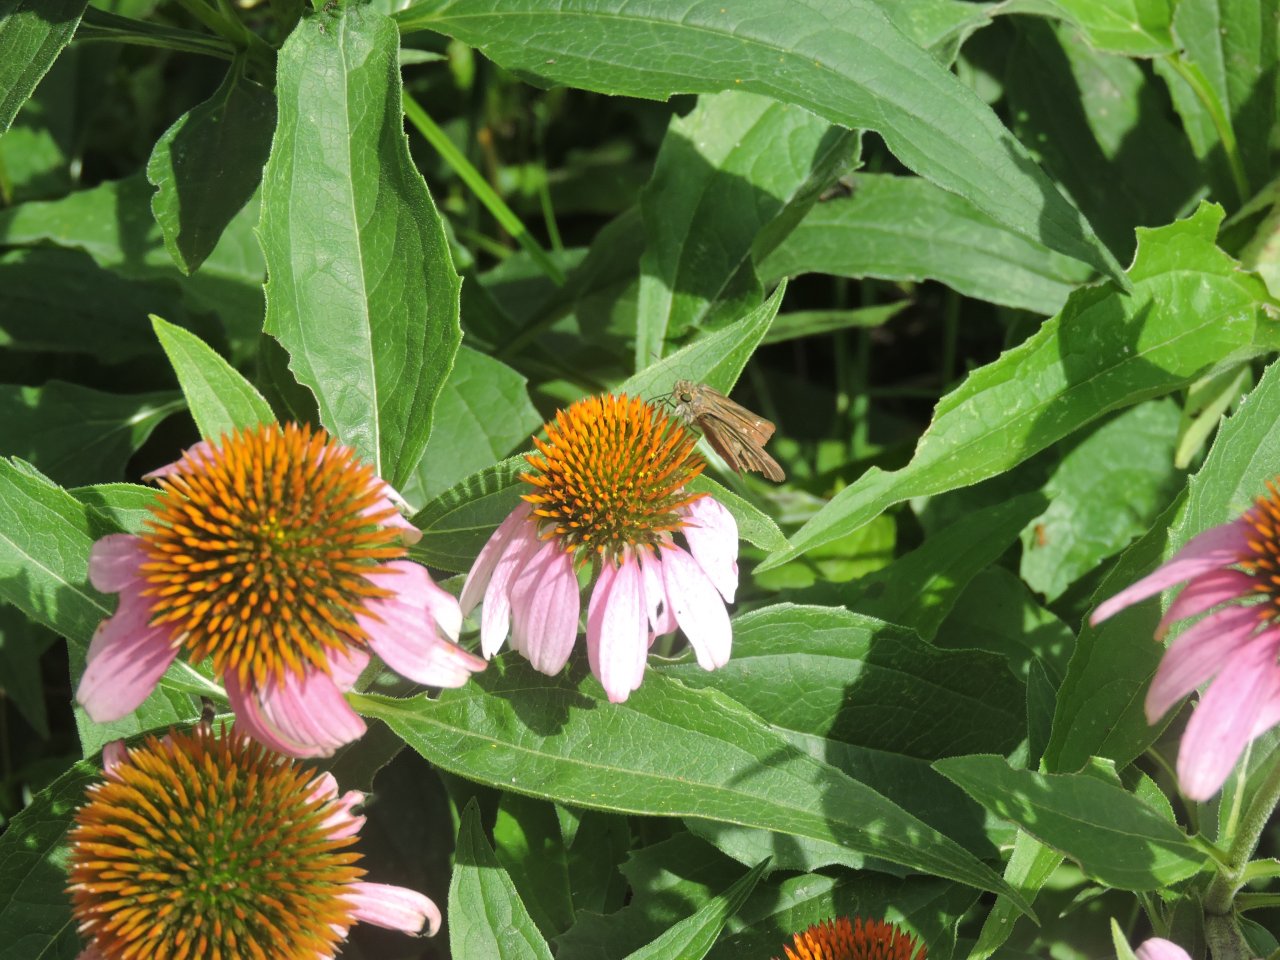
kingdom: Animalia
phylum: Arthropoda
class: Insecta
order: Lepidoptera
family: Hesperiidae
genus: Lerema
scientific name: Lerema accius
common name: Clouded Skipper
